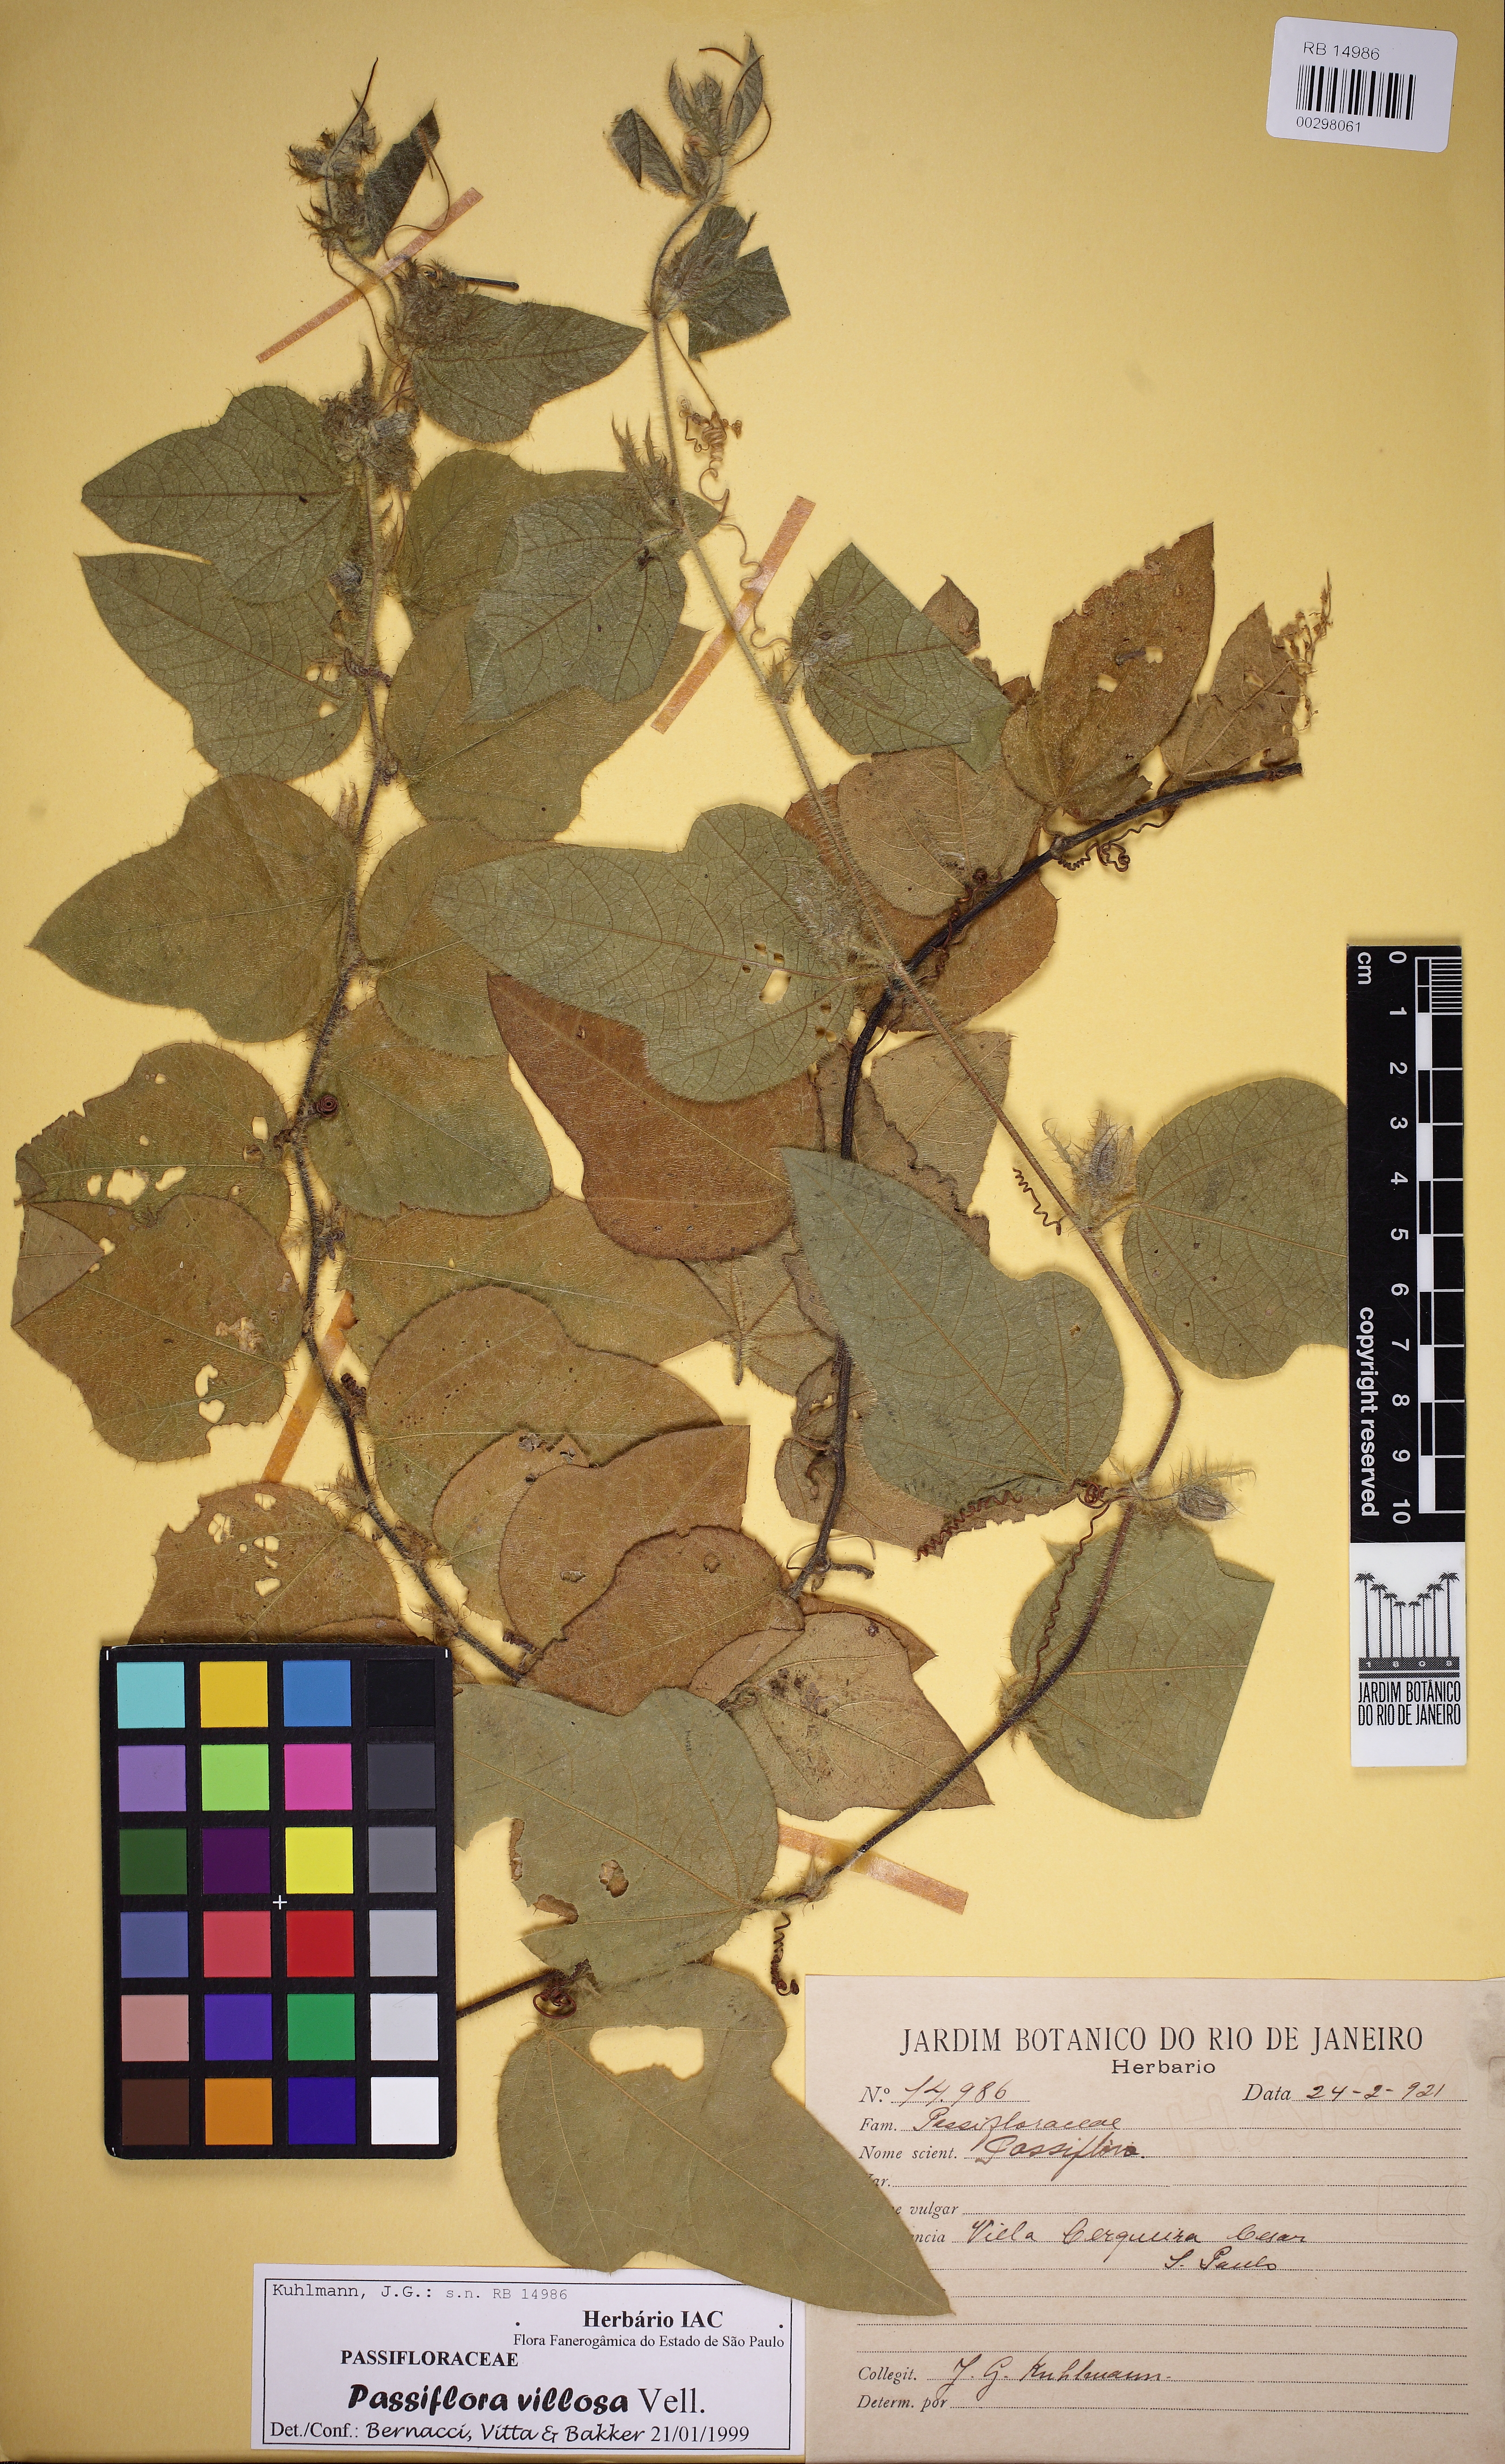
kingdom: Plantae
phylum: Tracheophyta
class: Magnoliopsida
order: Malpighiales
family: Passifloraceae
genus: Passiflora
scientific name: Passiflora
